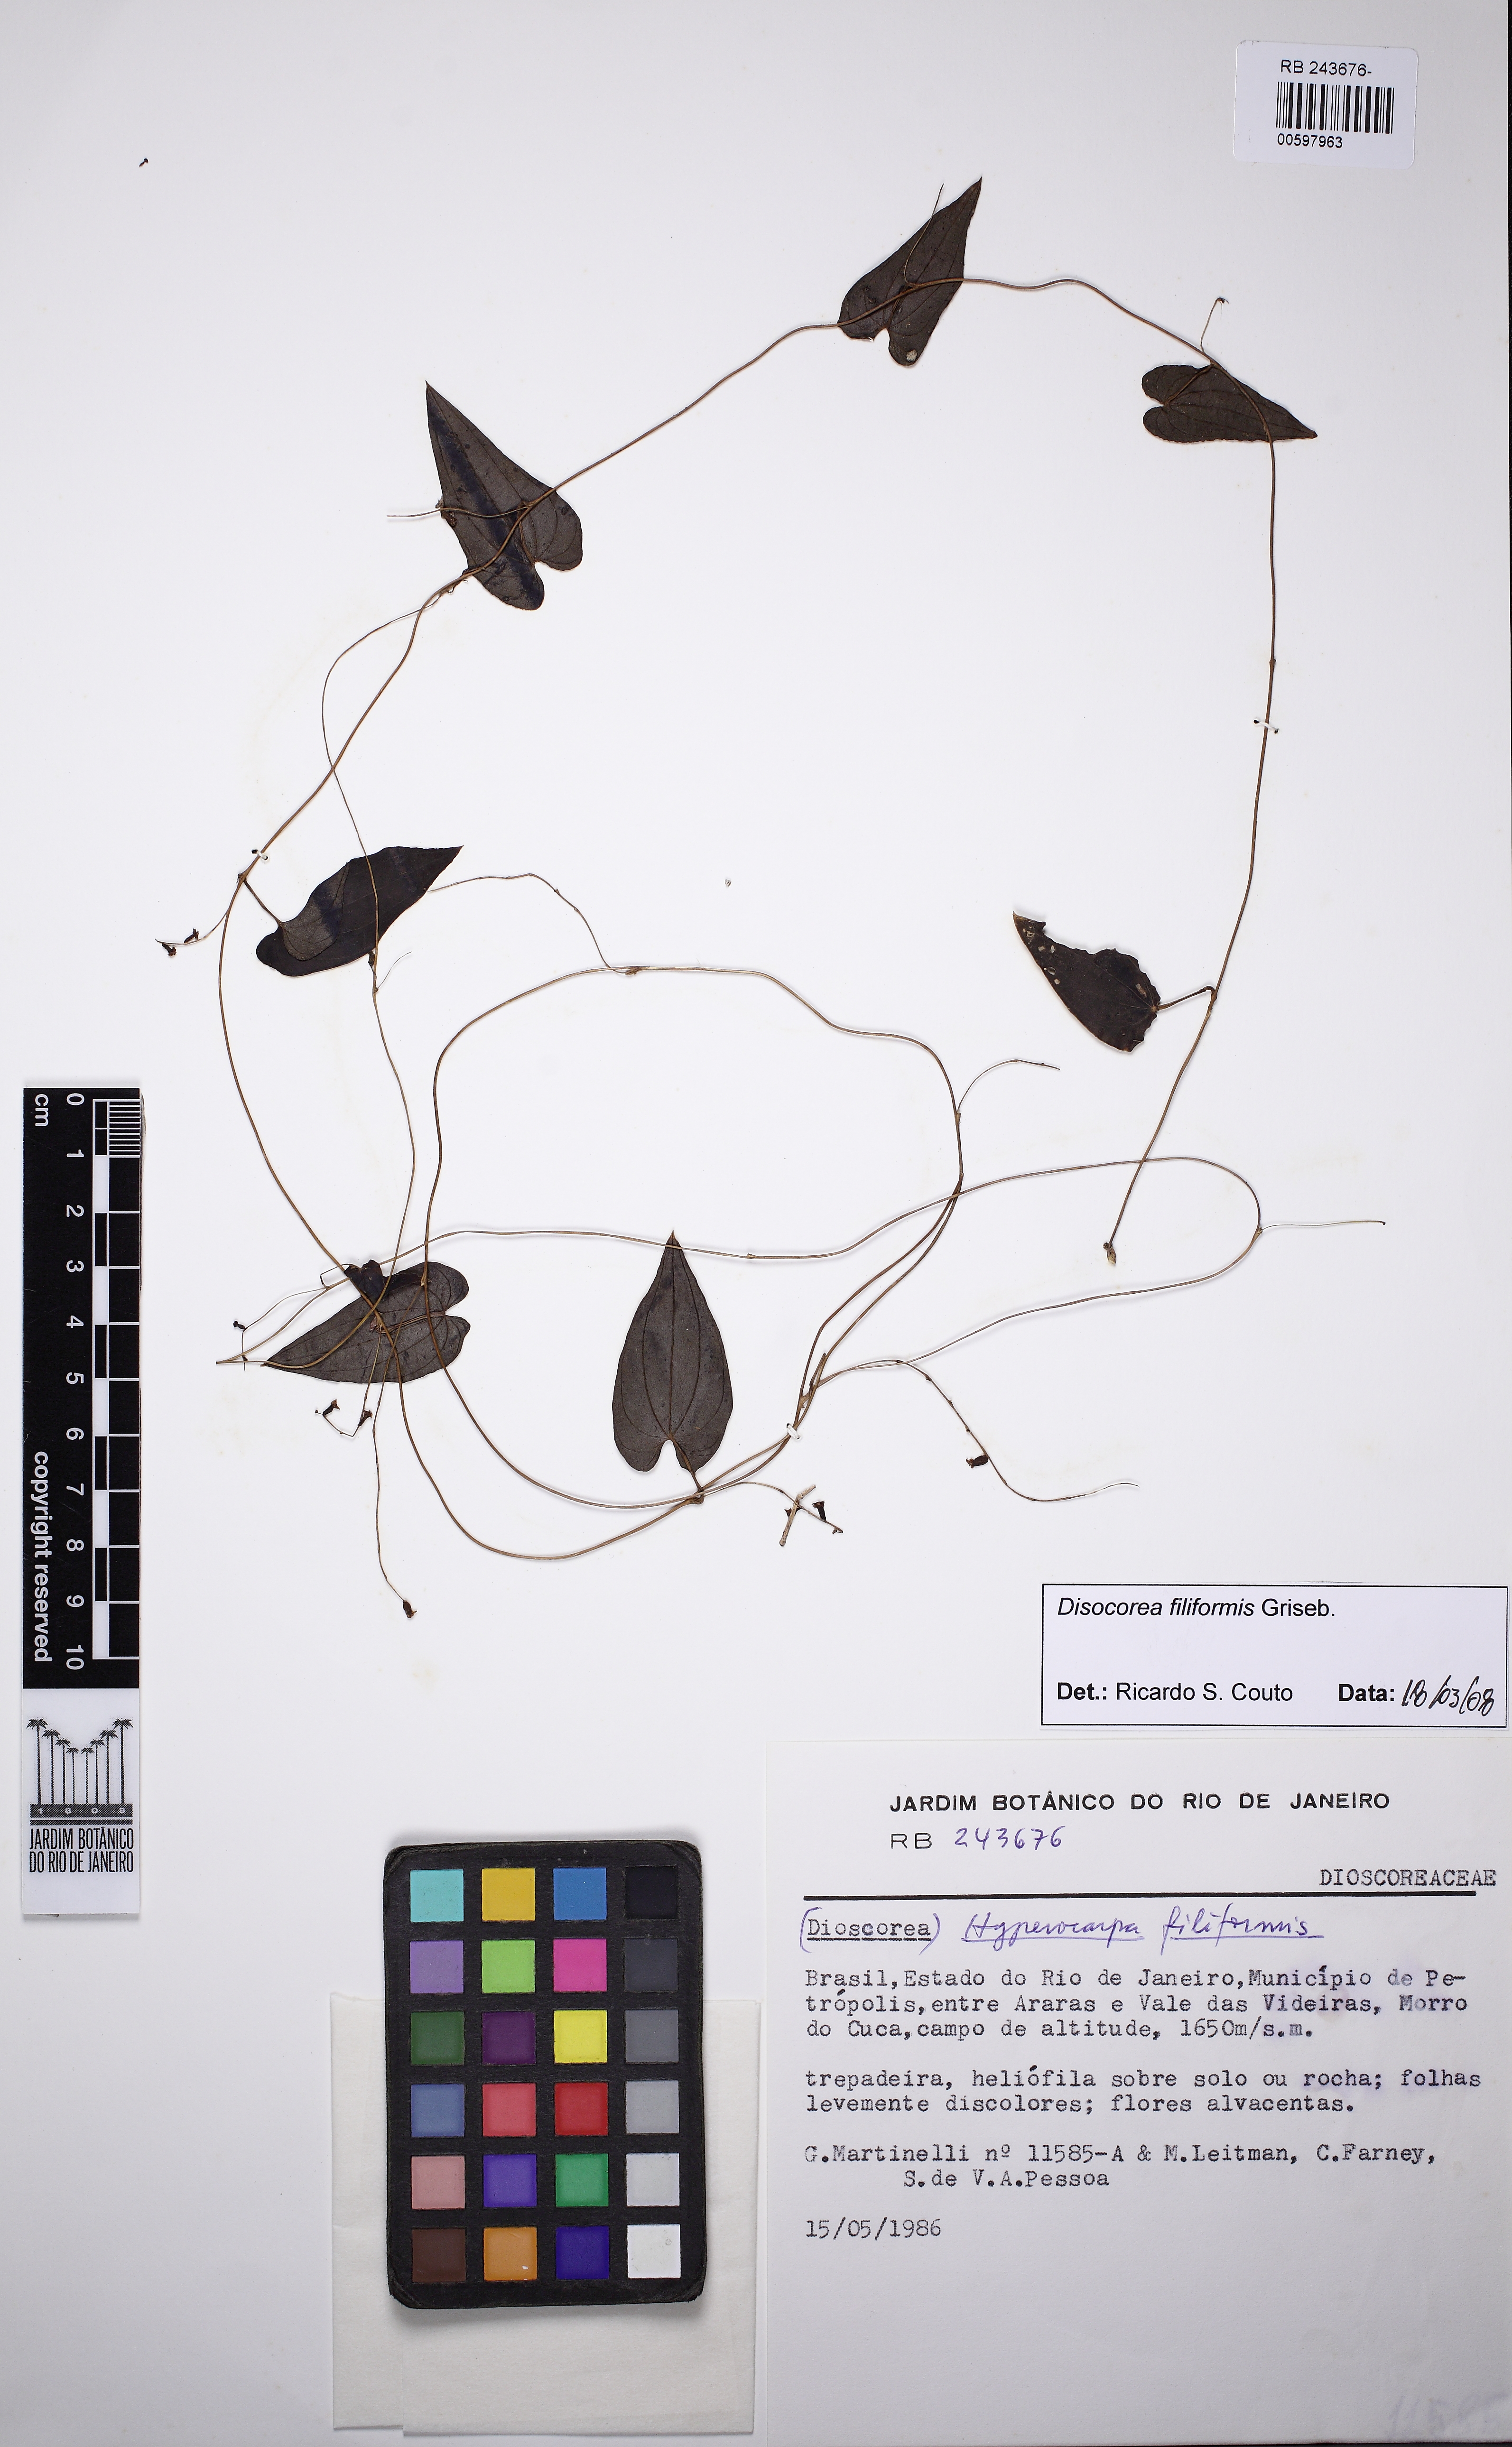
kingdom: Plantae
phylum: Tracheophyta
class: Liliopsida
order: Dioscoreales
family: Dioscoreaceae
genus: Dioscorea
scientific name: Dioscorea grisebachii
